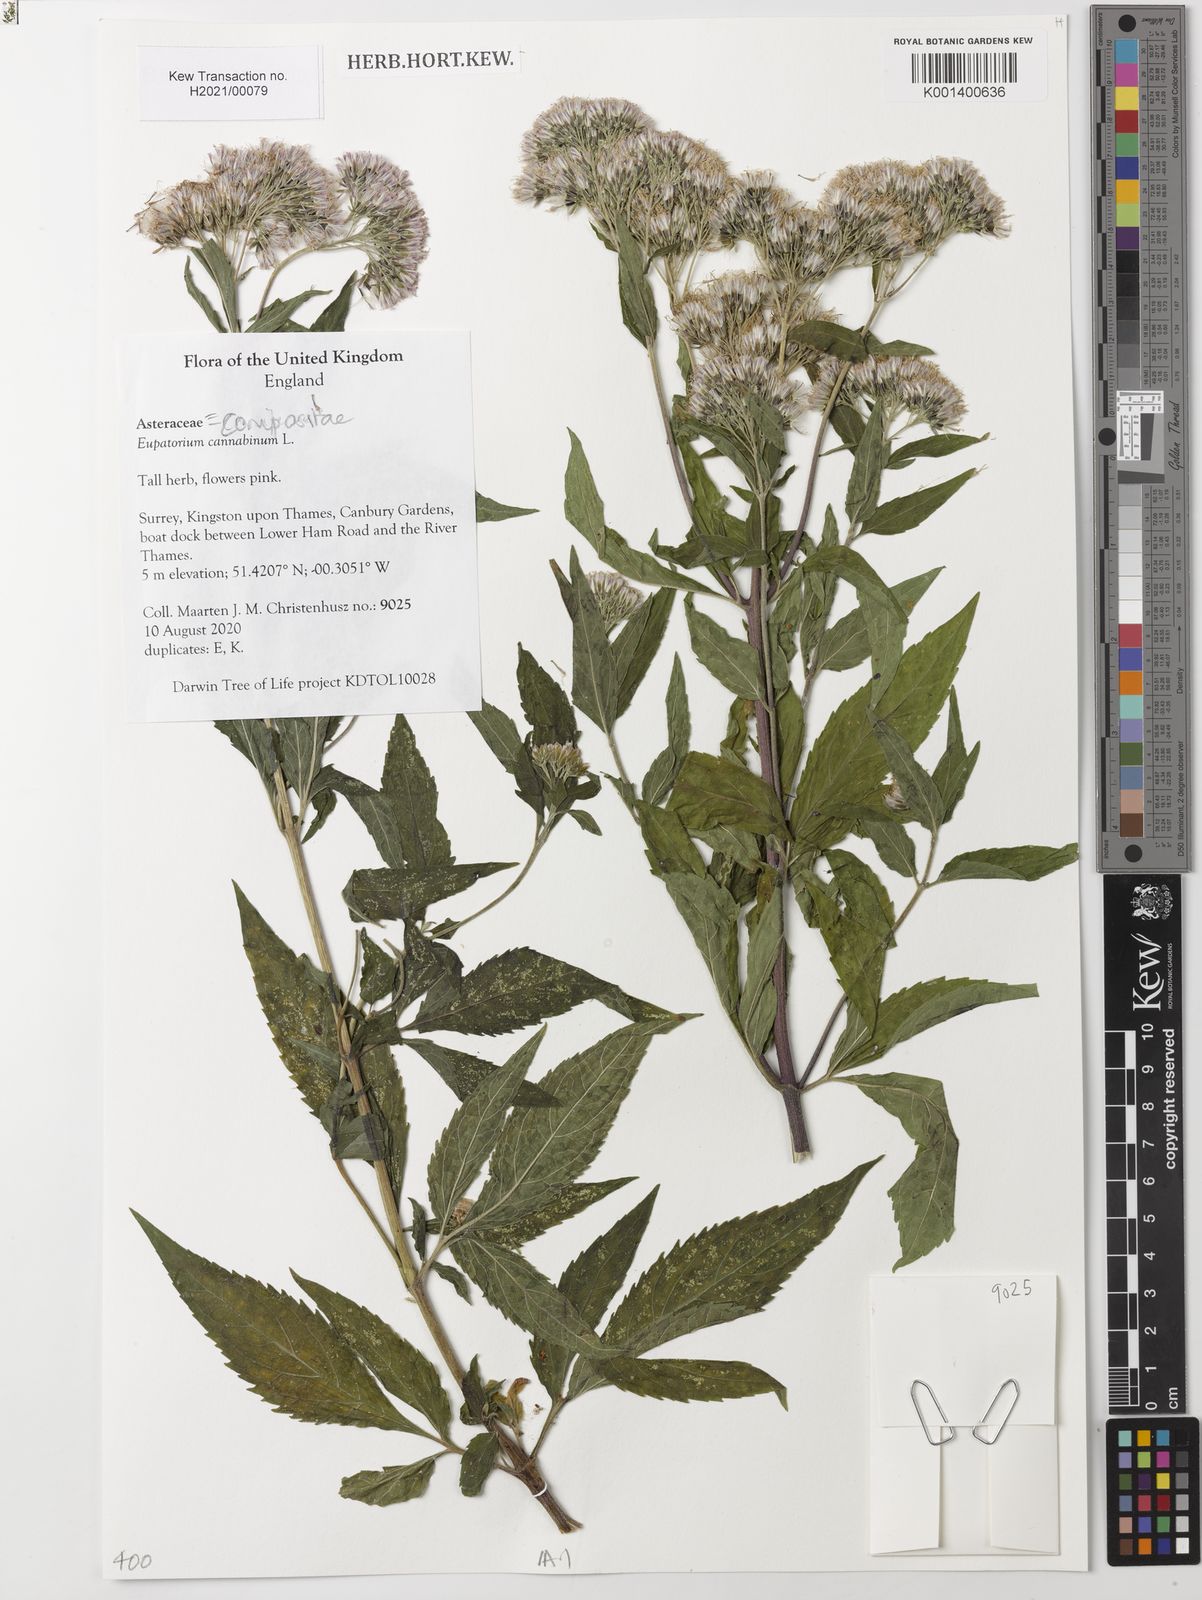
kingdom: Plantae
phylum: Tracheophyta
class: Magnoliopsida
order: Asterales
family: Asteraceae
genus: Eupatorium
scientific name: Eupatorium cannabinum
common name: Hemp-agrimony
